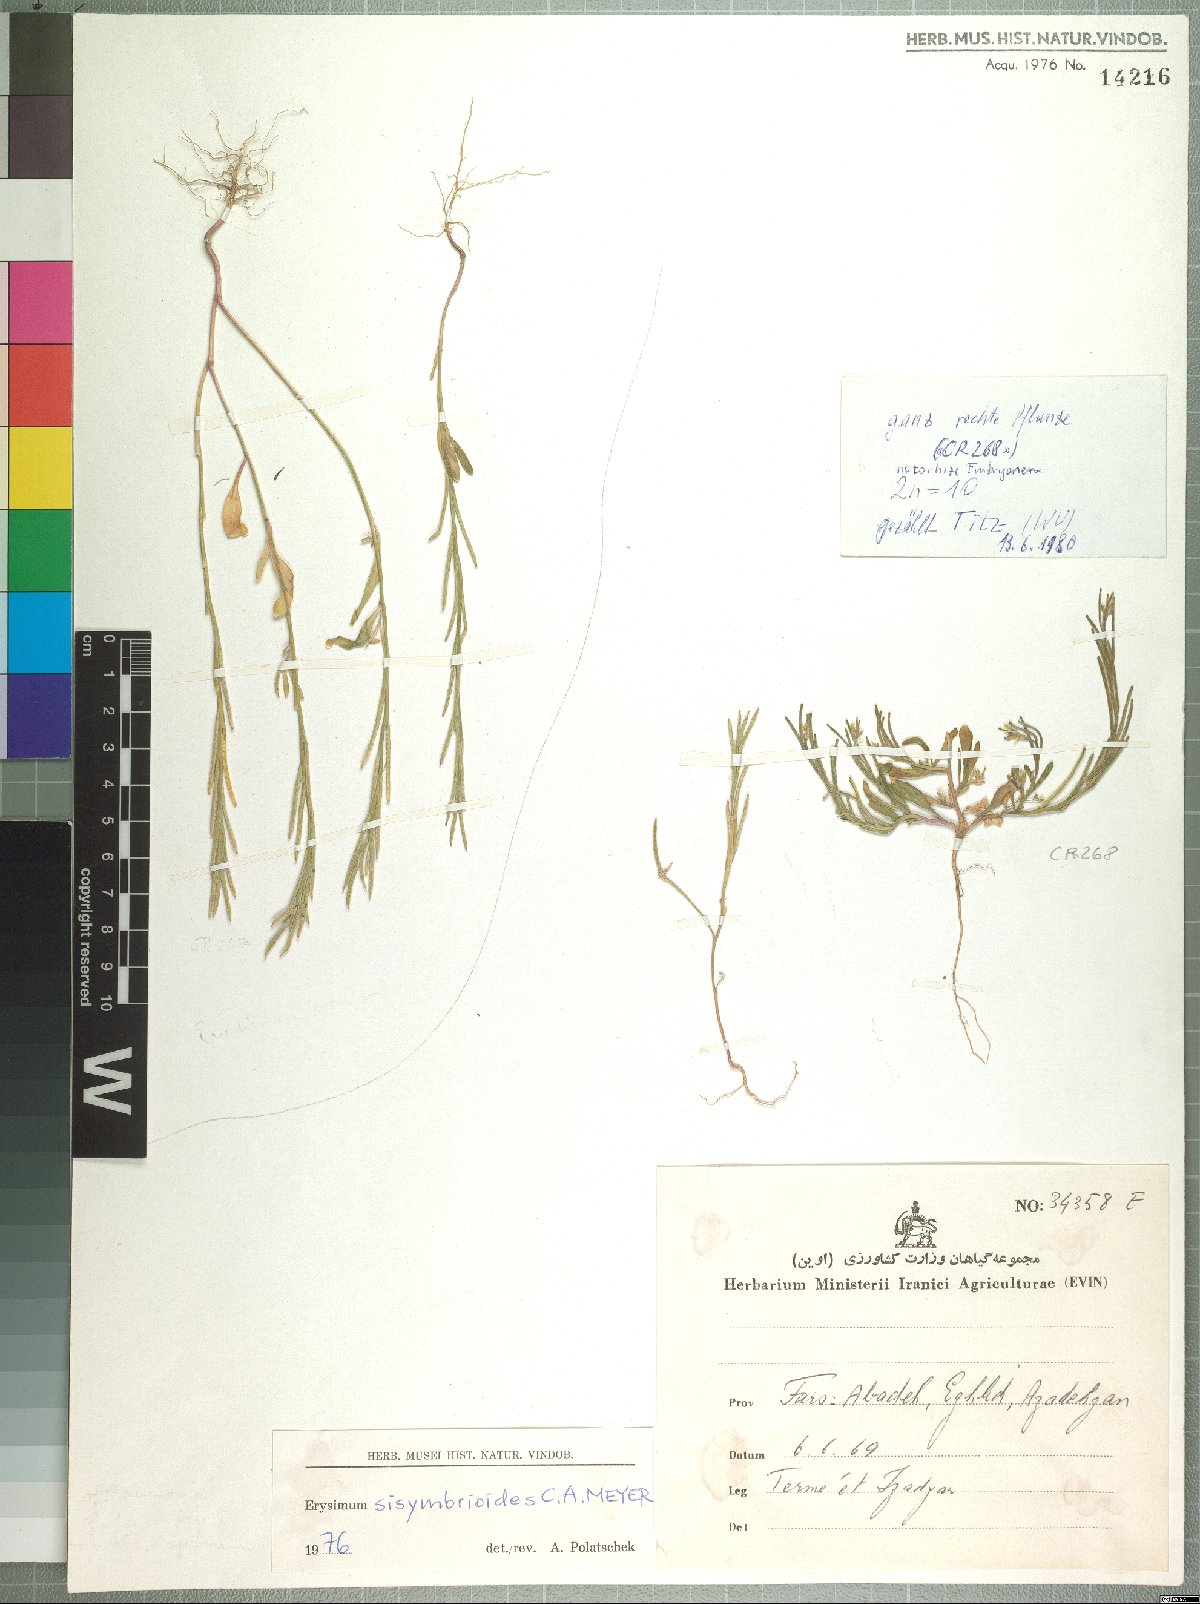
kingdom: Plantae
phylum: Tracheophyta
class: Magnoliopsida
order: Brassicales
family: Brassicaceae
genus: Erysimum
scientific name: Erysimum sisymbrioides
